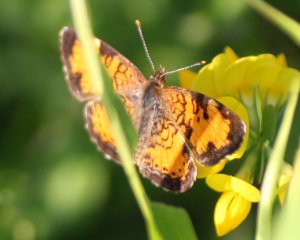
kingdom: Animalia
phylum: Arthropoda
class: Insecta
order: Lepidoptera
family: Nymphalidae
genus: Phyciodes
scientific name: Phyciodes tharos
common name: Northern Crescent
